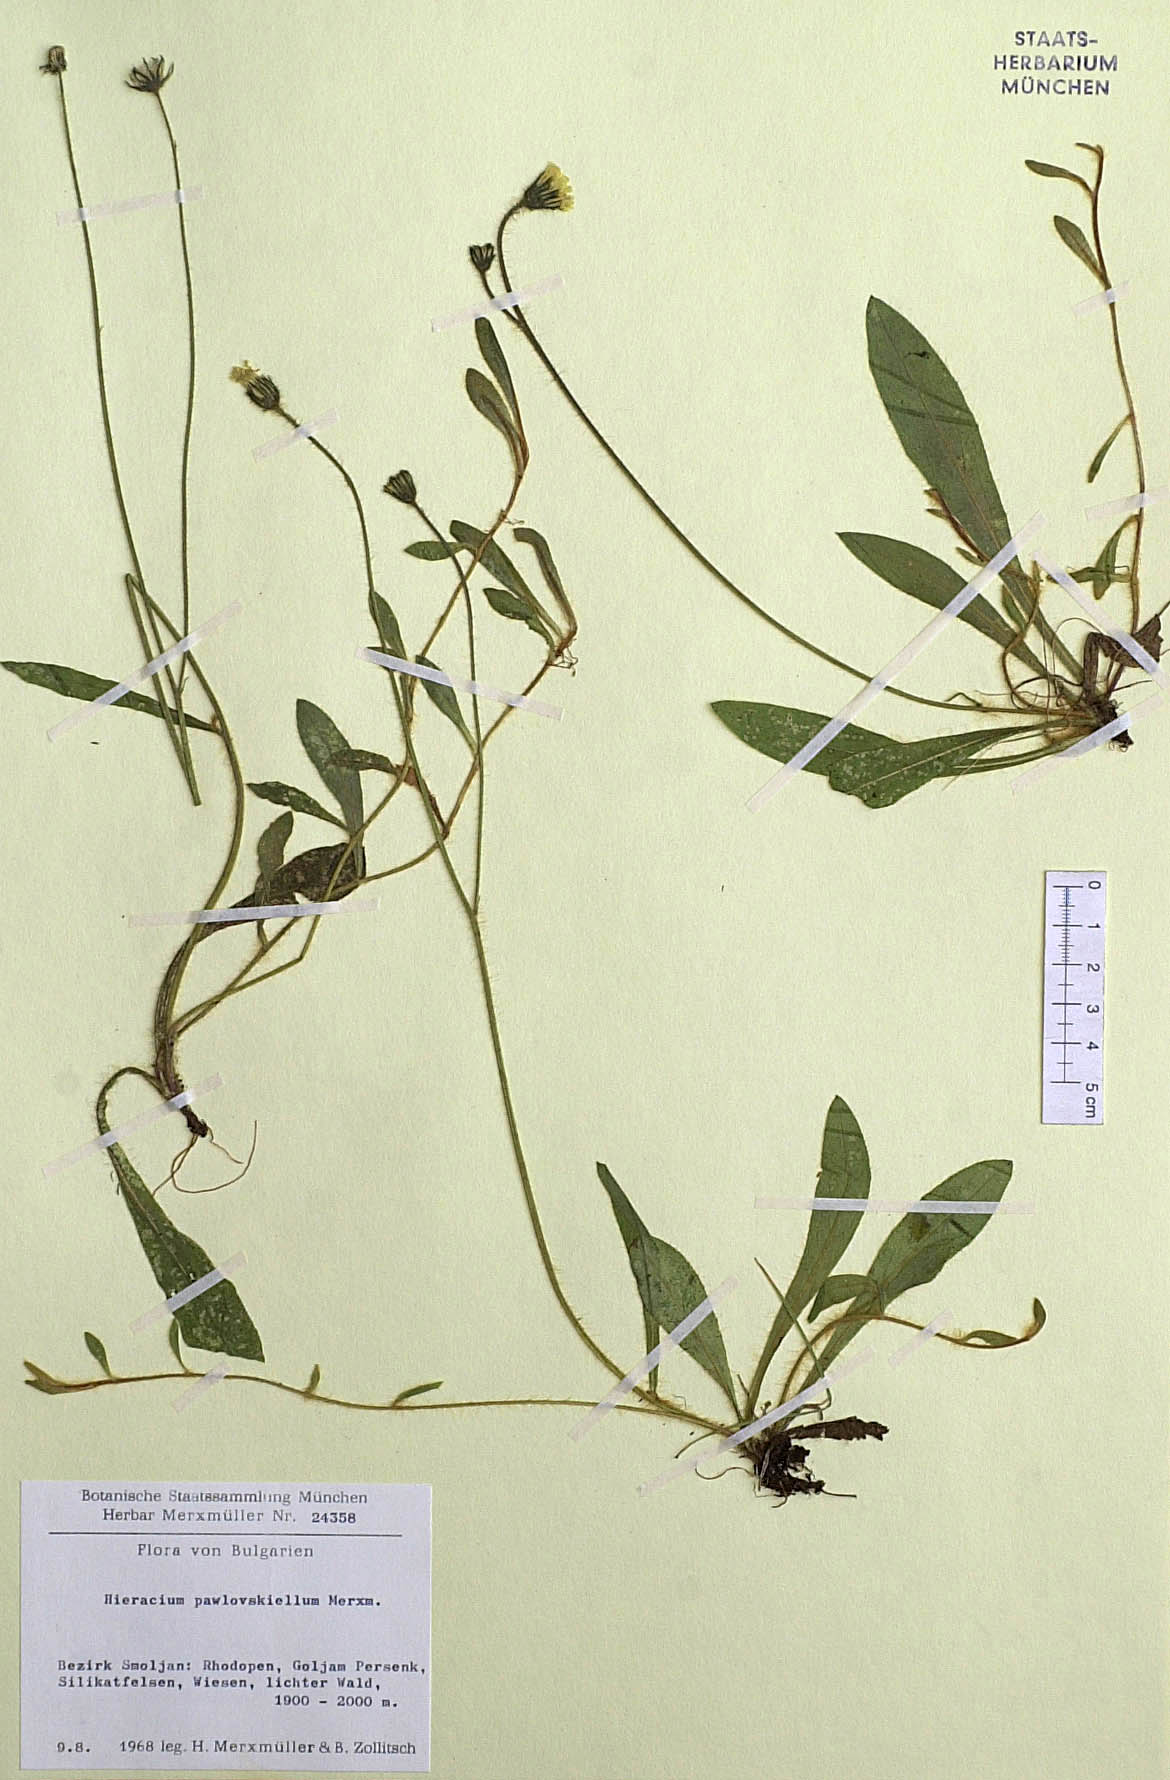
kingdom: Plantae
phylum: Tracheophyta
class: Magnoliopsida
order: Asterales
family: Asteraceae
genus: Pilosella
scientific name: Pilosella pawlowskiella
